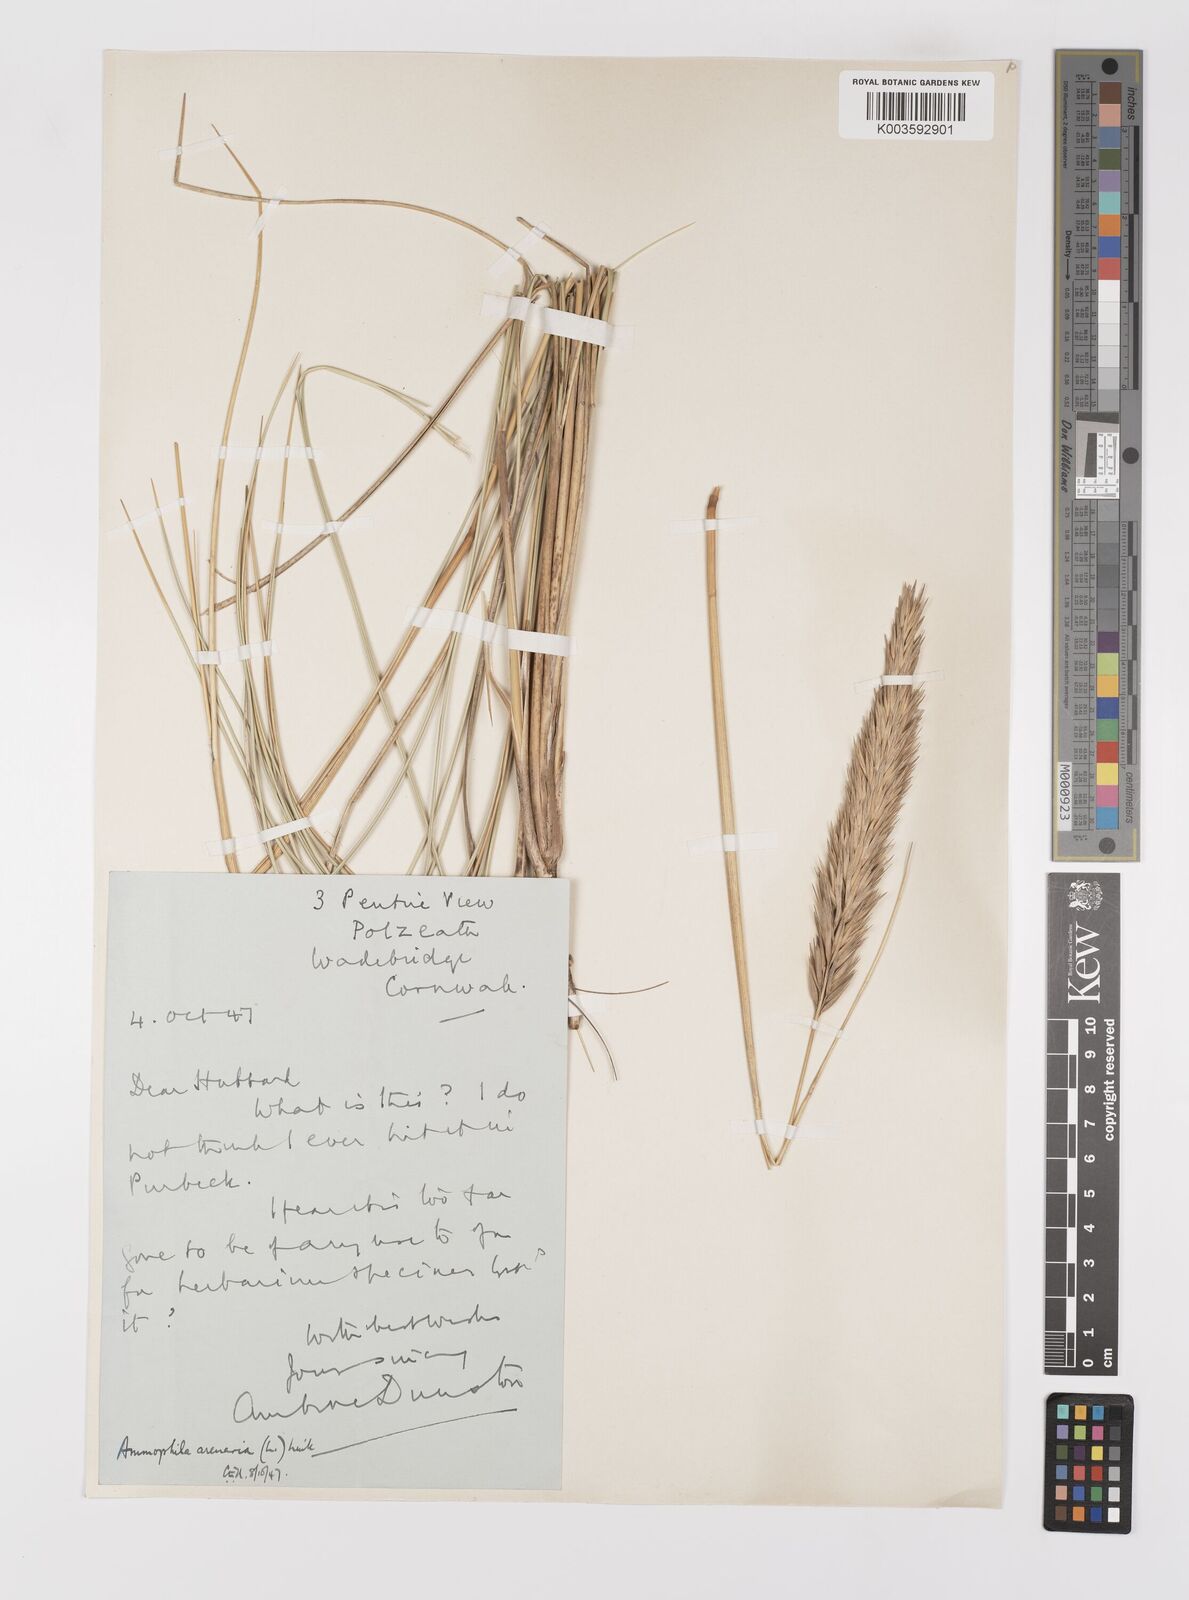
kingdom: Plantae
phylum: Tracheophyta
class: Liliopsida
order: Poales
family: Poaceae
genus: Calamagrostis
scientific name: Calamagrostis arenaria
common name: European beachgrass
